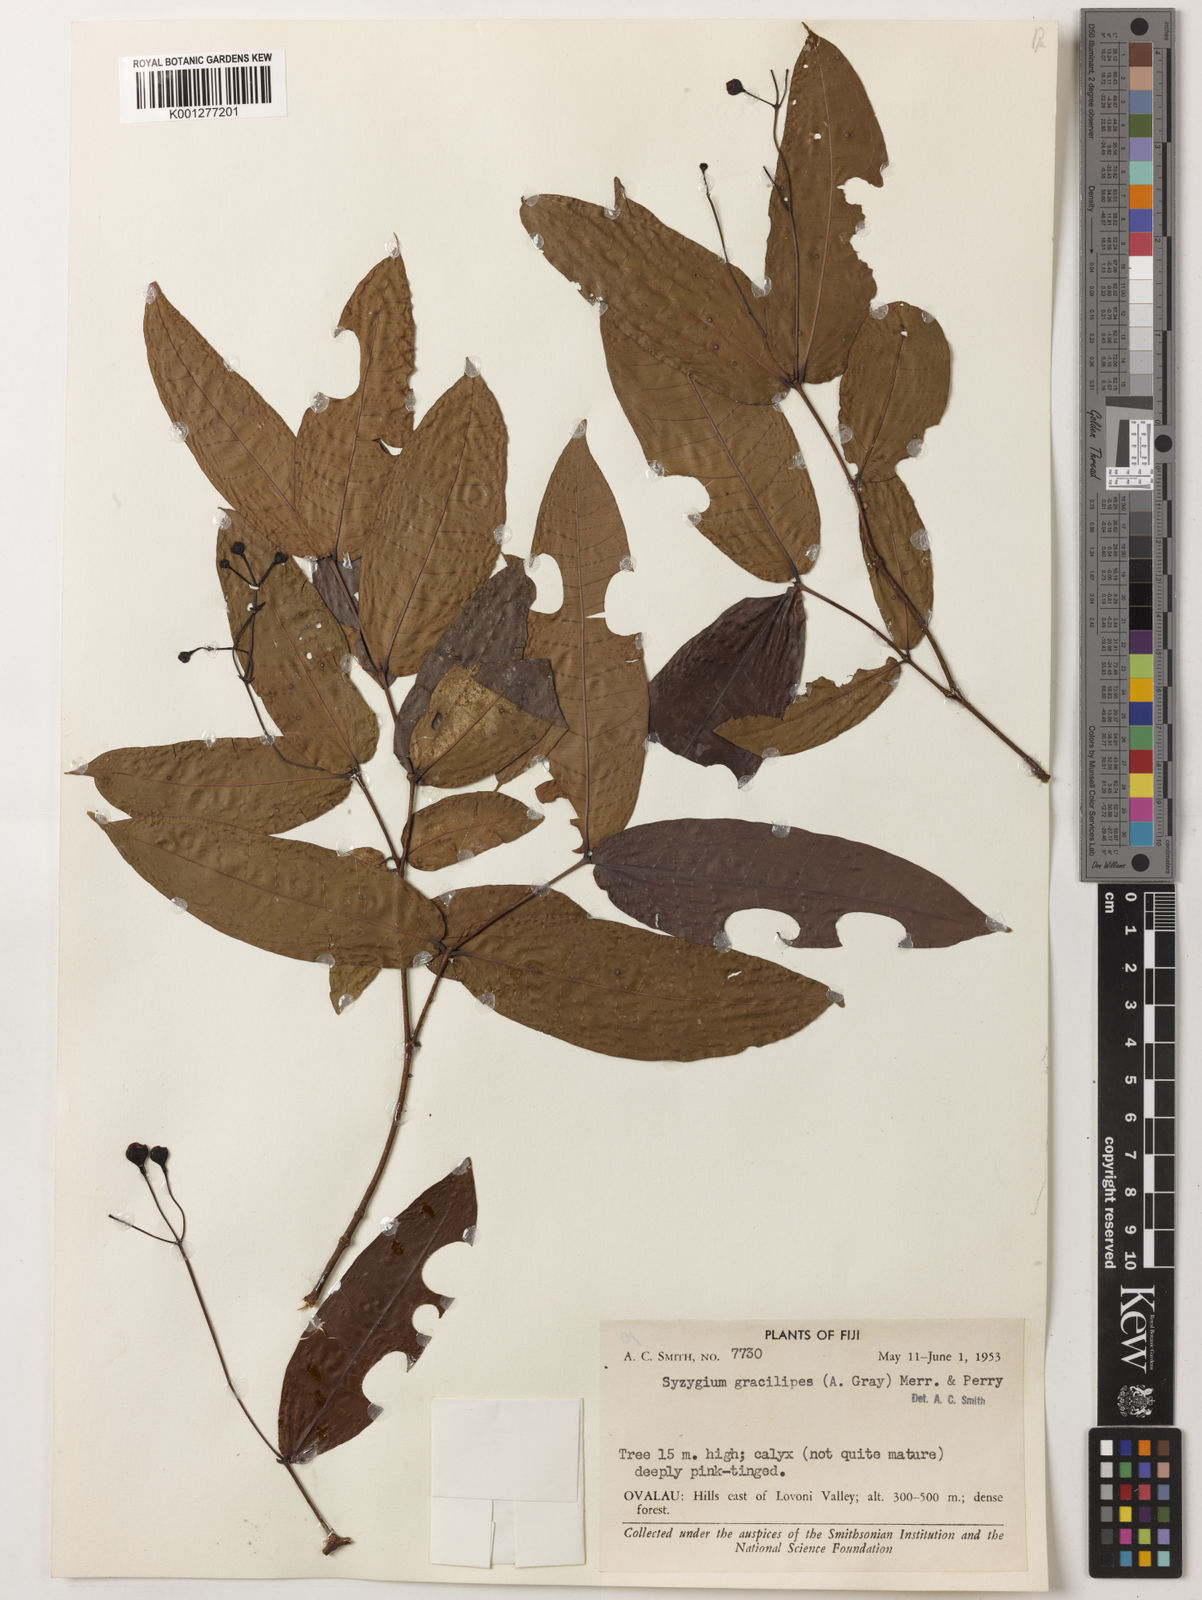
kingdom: Plantae
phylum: Tracheophyta
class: Magnoliopsida
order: Myrtales
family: Myrtaceae
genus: Syzygium
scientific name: Syzygium gracilipes
